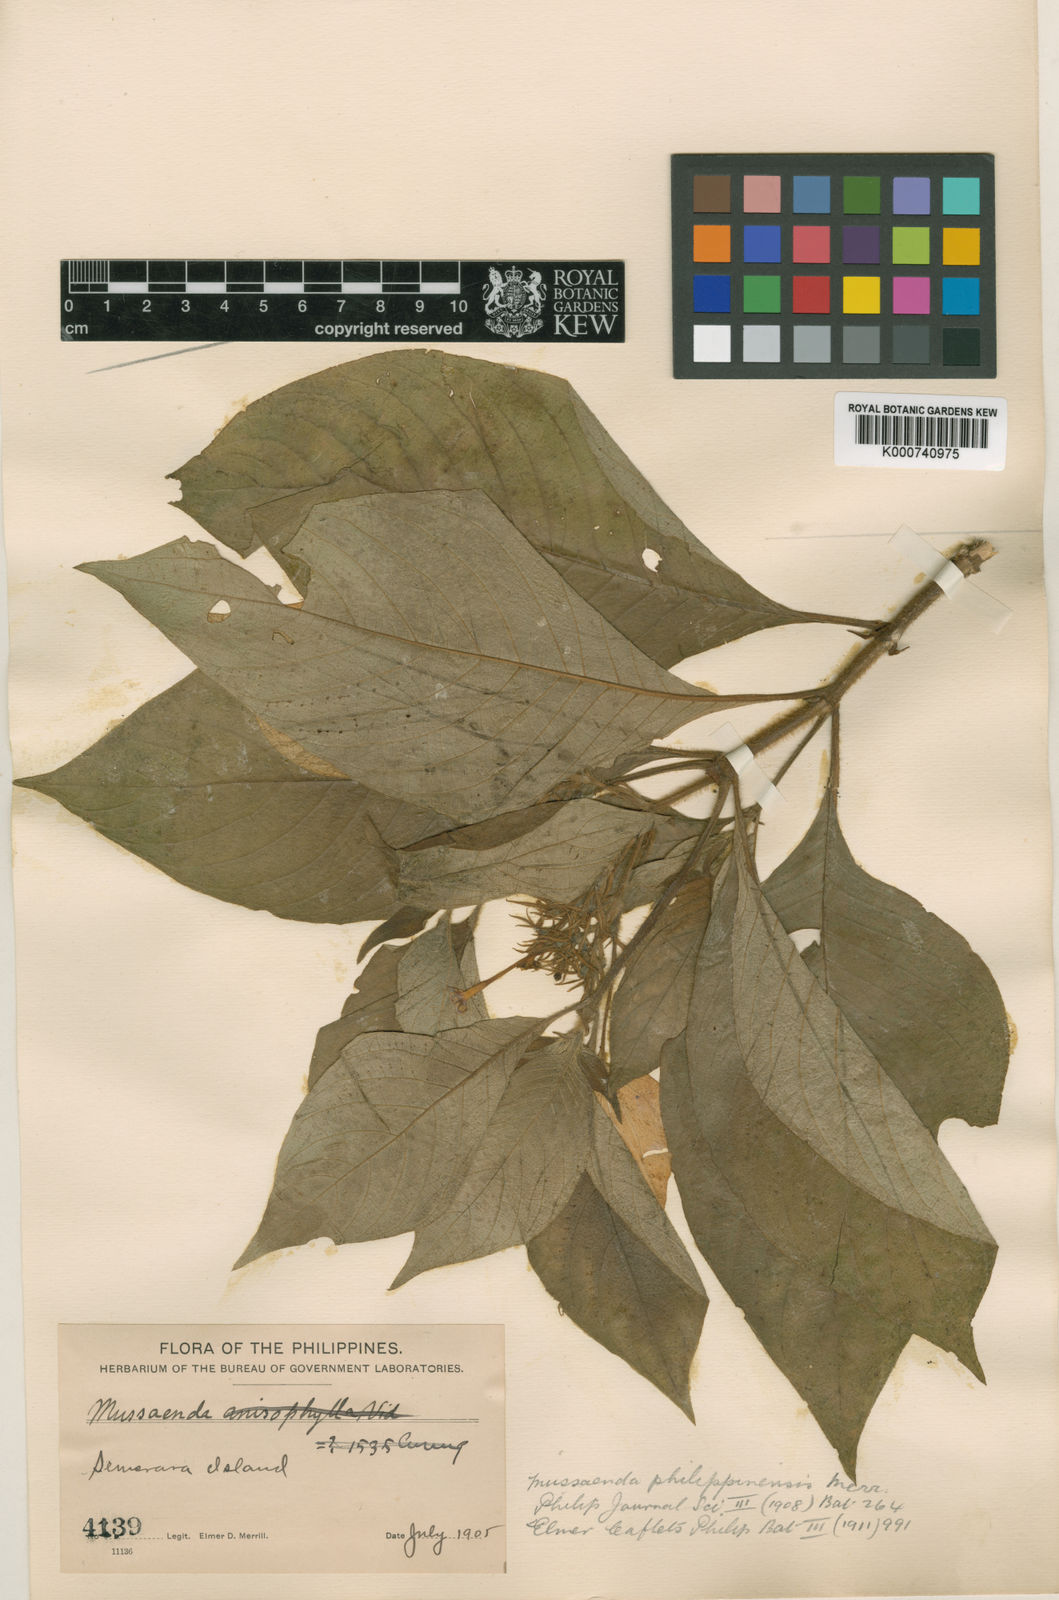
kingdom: Plantae
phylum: Tracheophyta
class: Magnoliopsida
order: Gentianales
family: Rubiaceae
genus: Mussaenda
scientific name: Mussaenda philippinensis
